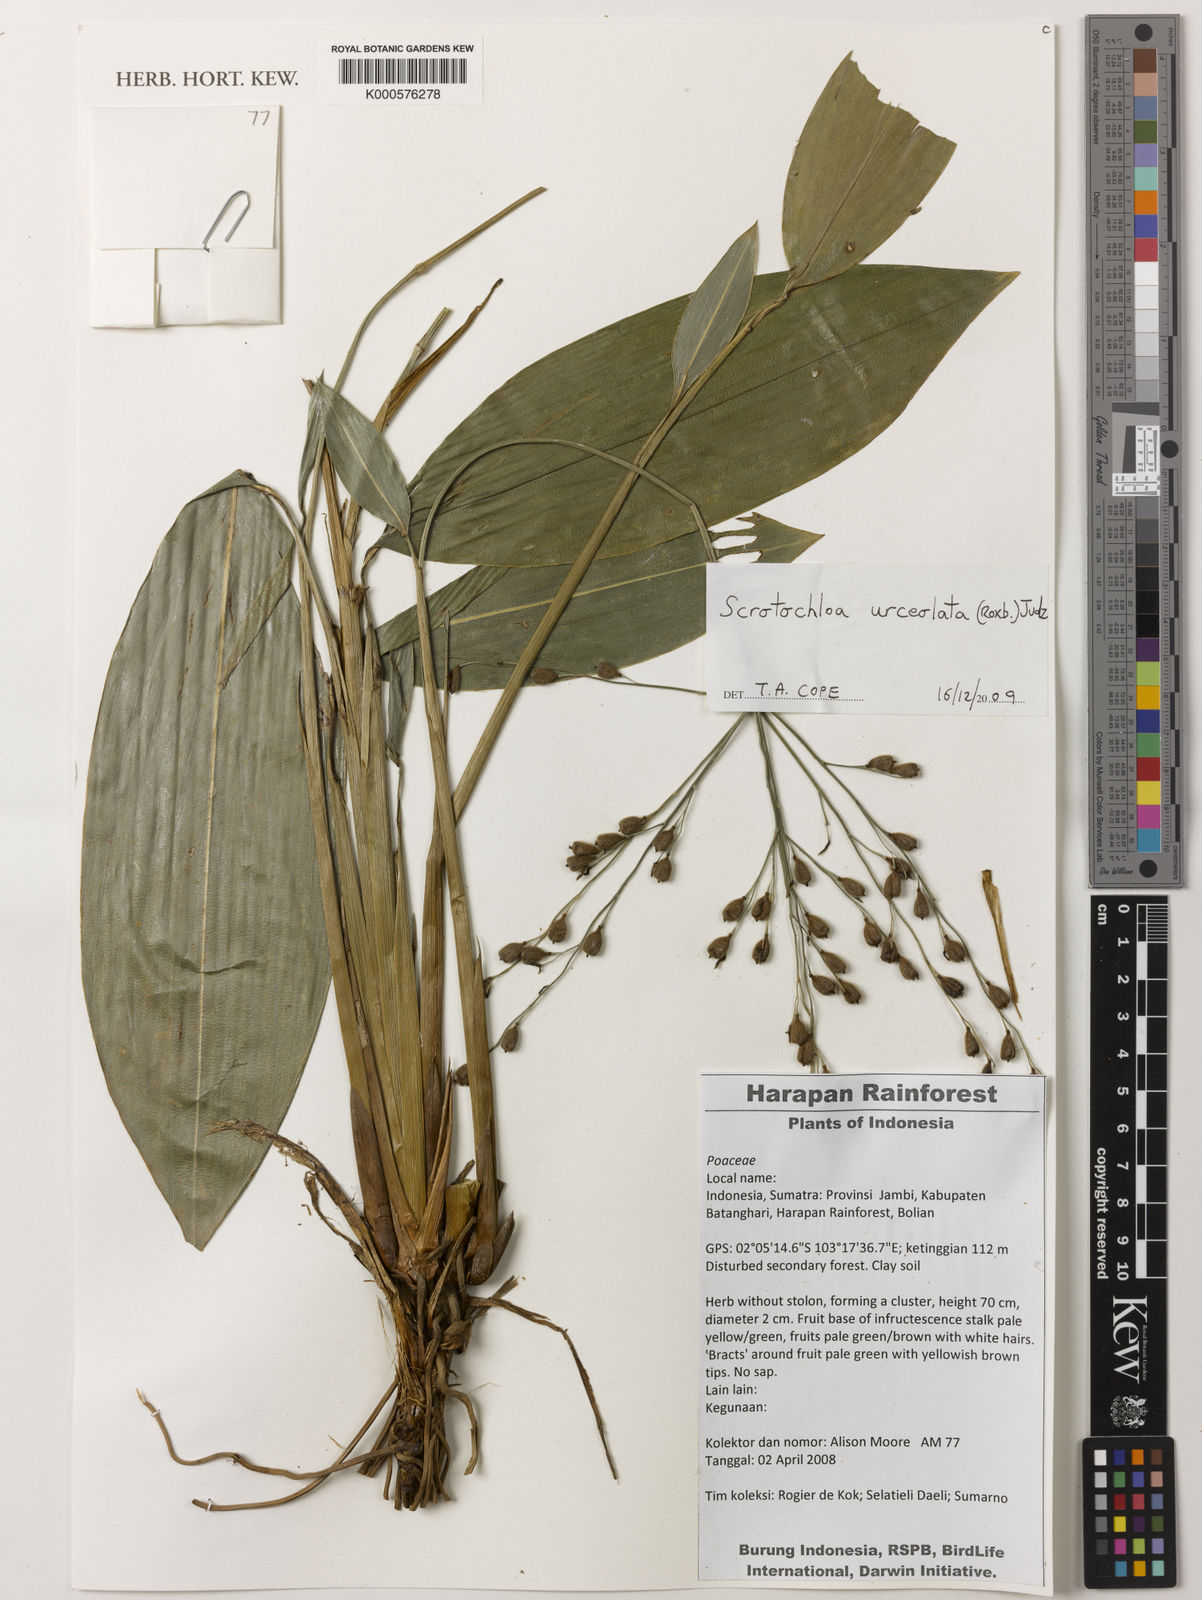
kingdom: Plantae
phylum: Tracheophyta
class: Liliopsida
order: Poales
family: Poaceae
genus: Scrotochloa
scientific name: Scrotochloa urceolata
